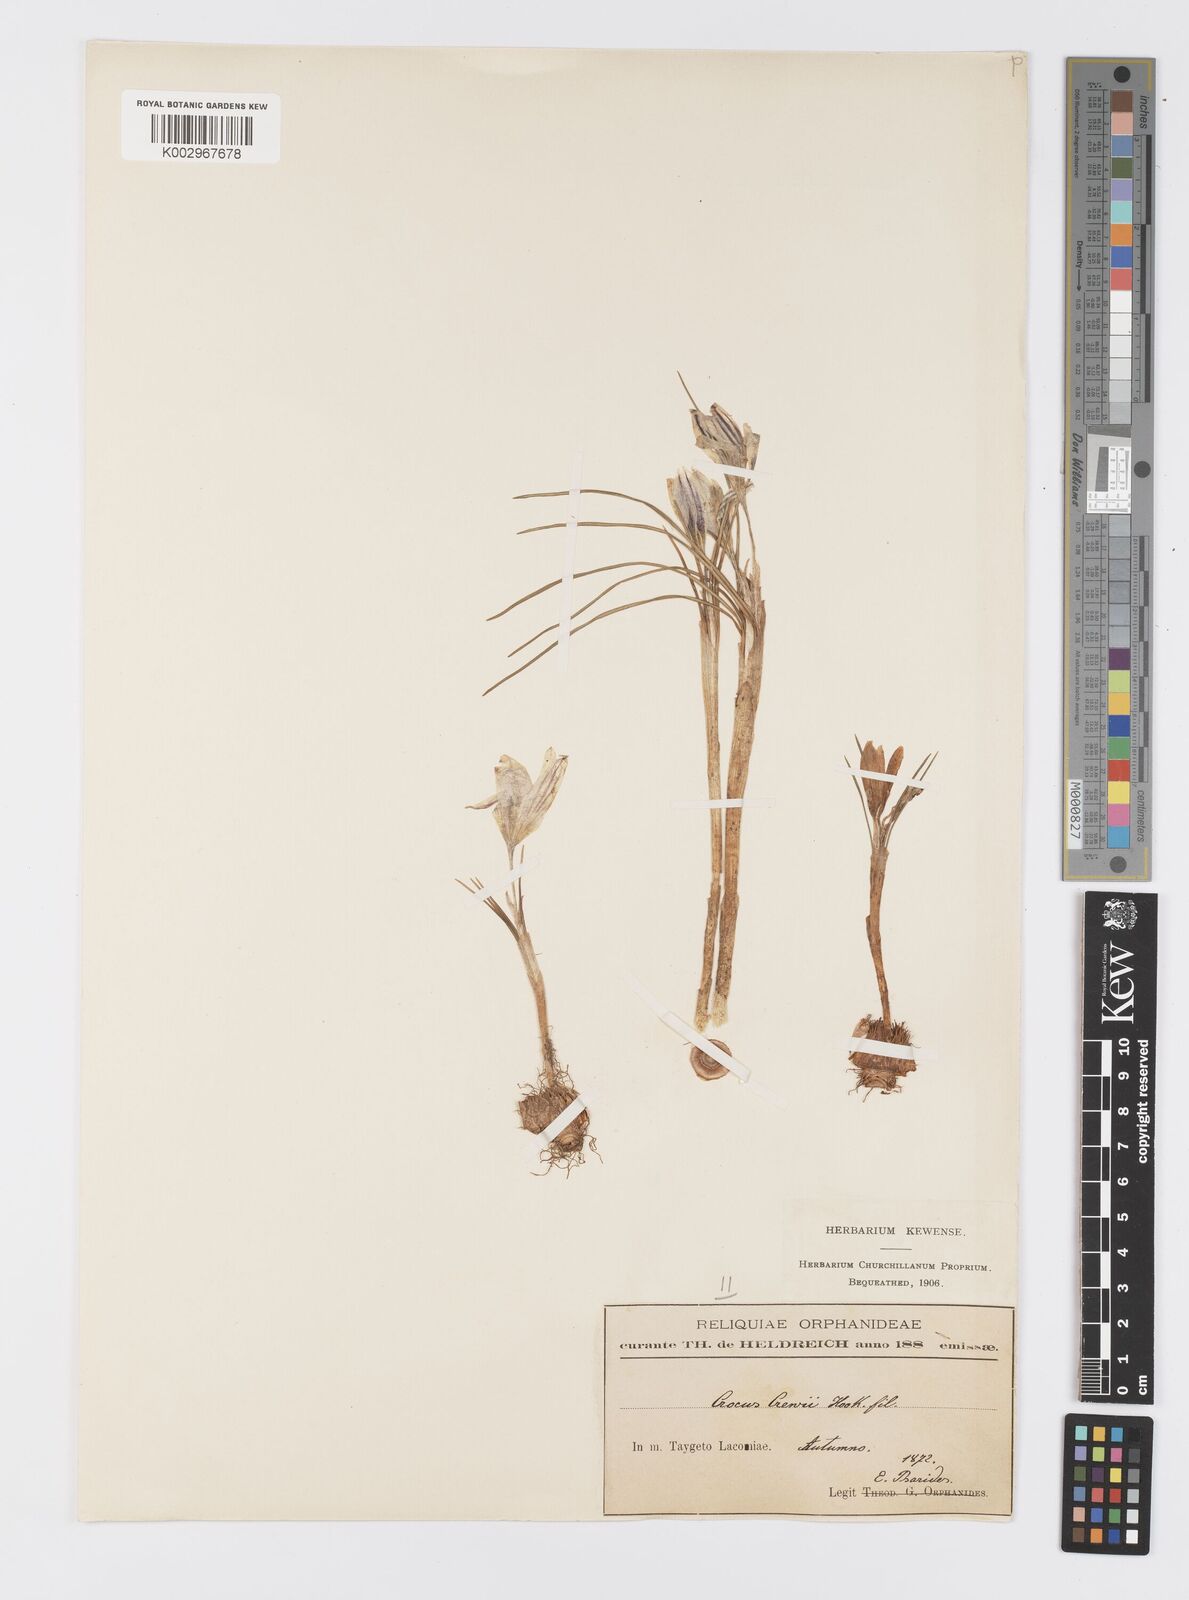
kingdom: Plantae
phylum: Tracheophyta
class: Liliopsida
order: Asparagales
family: Iridaceae
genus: Crocus
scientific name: Crocus melantherus
